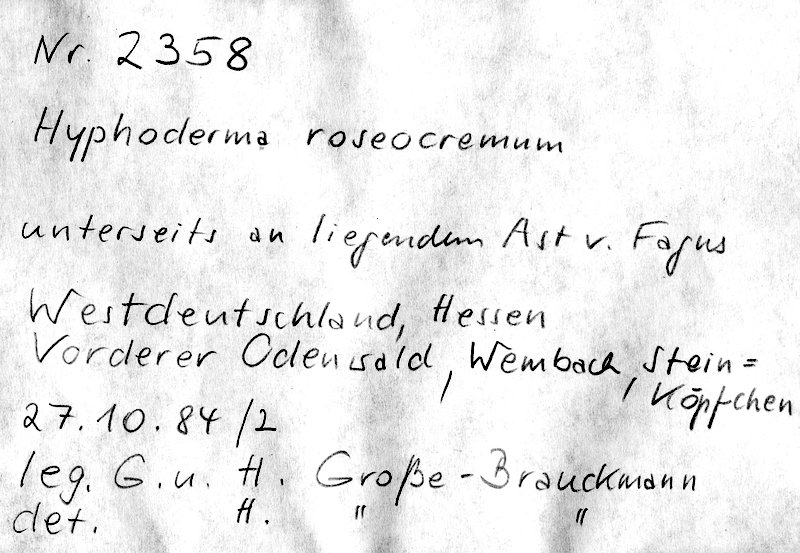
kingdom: Plantae
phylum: Tracheophyta
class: Magnoliopsida
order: Fagales
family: Fagaceae
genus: Fagus
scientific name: Fagus sylvatica
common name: Beech
